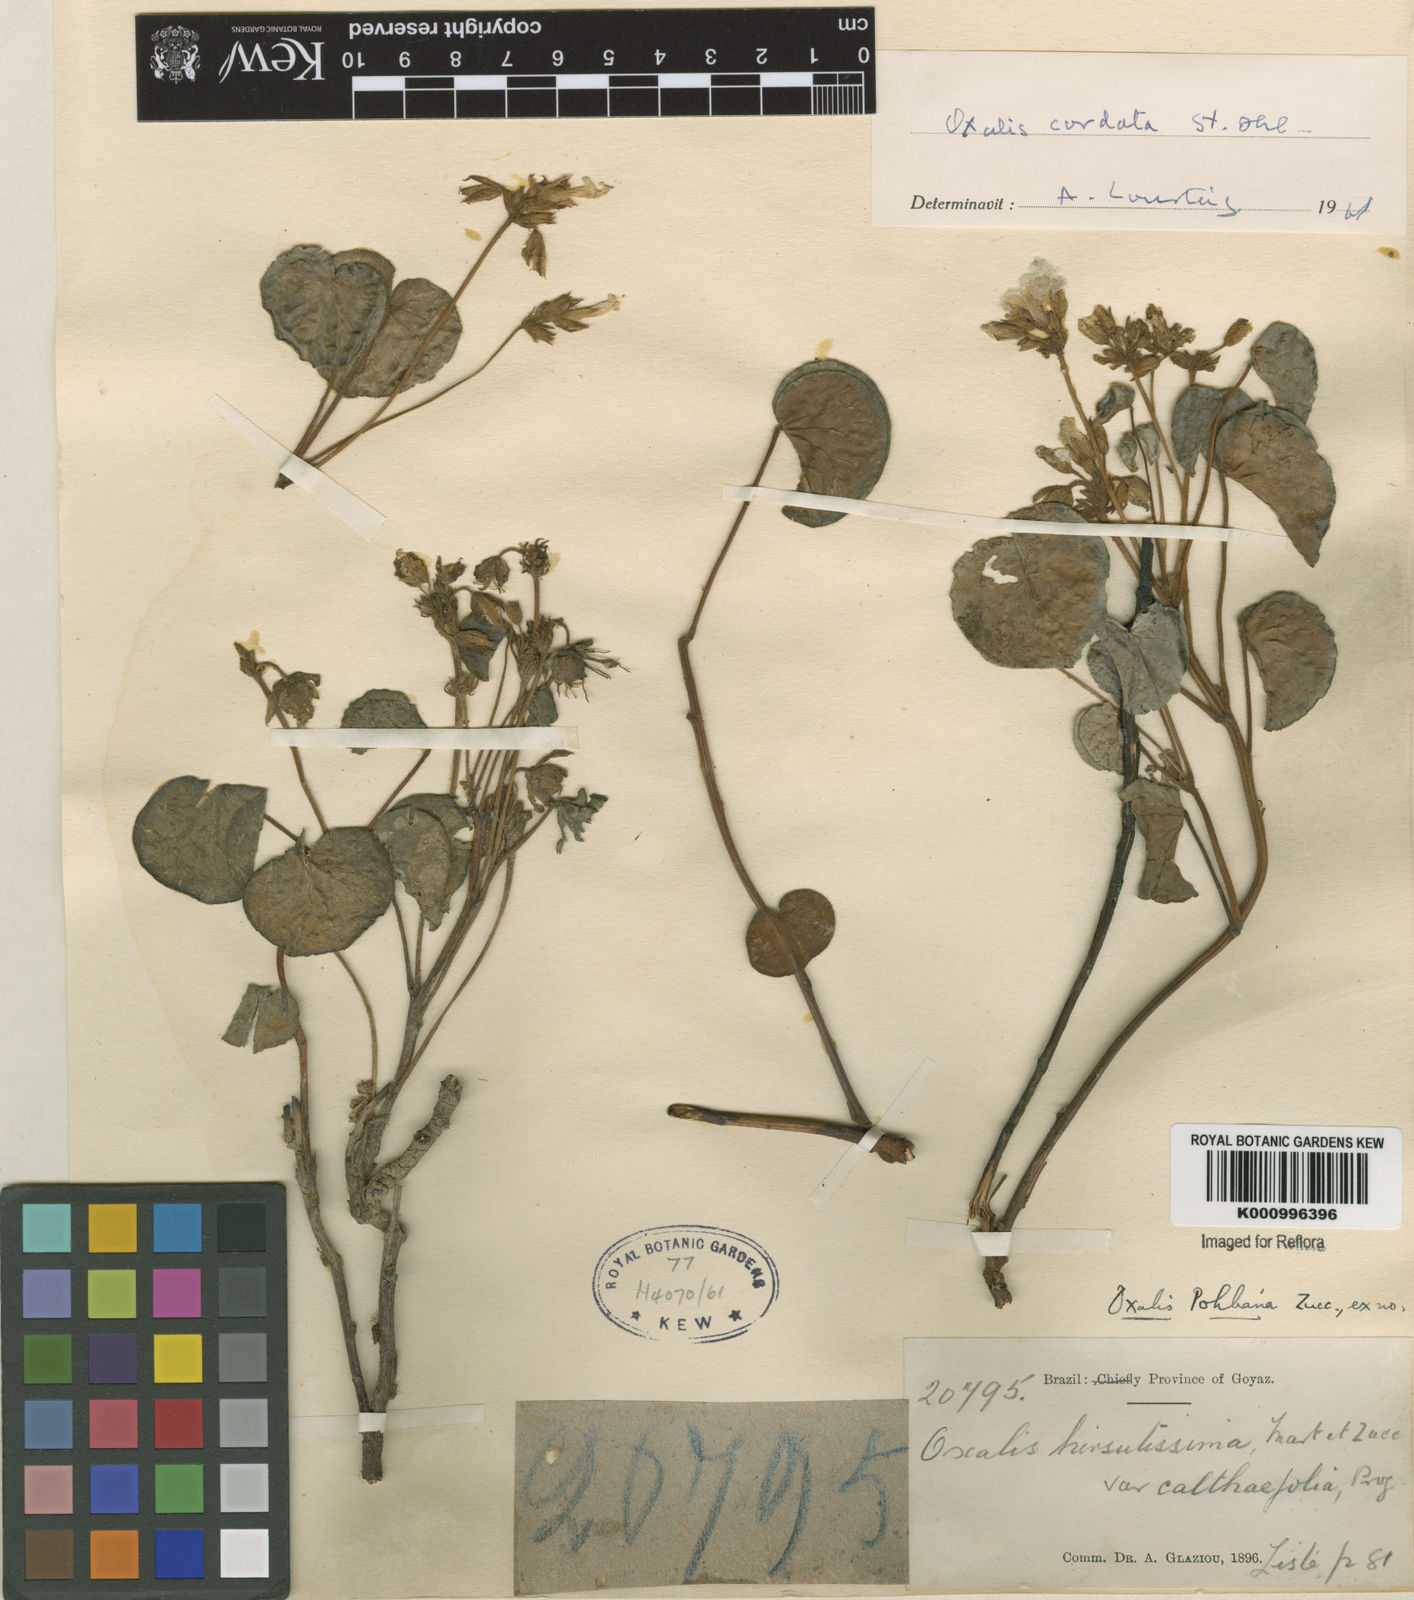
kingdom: Plantae
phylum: Tracheophyta
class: Magnoliopsida
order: Oxalidales
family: Oxalidaceae
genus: Oxalis
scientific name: Oxalis cordata
